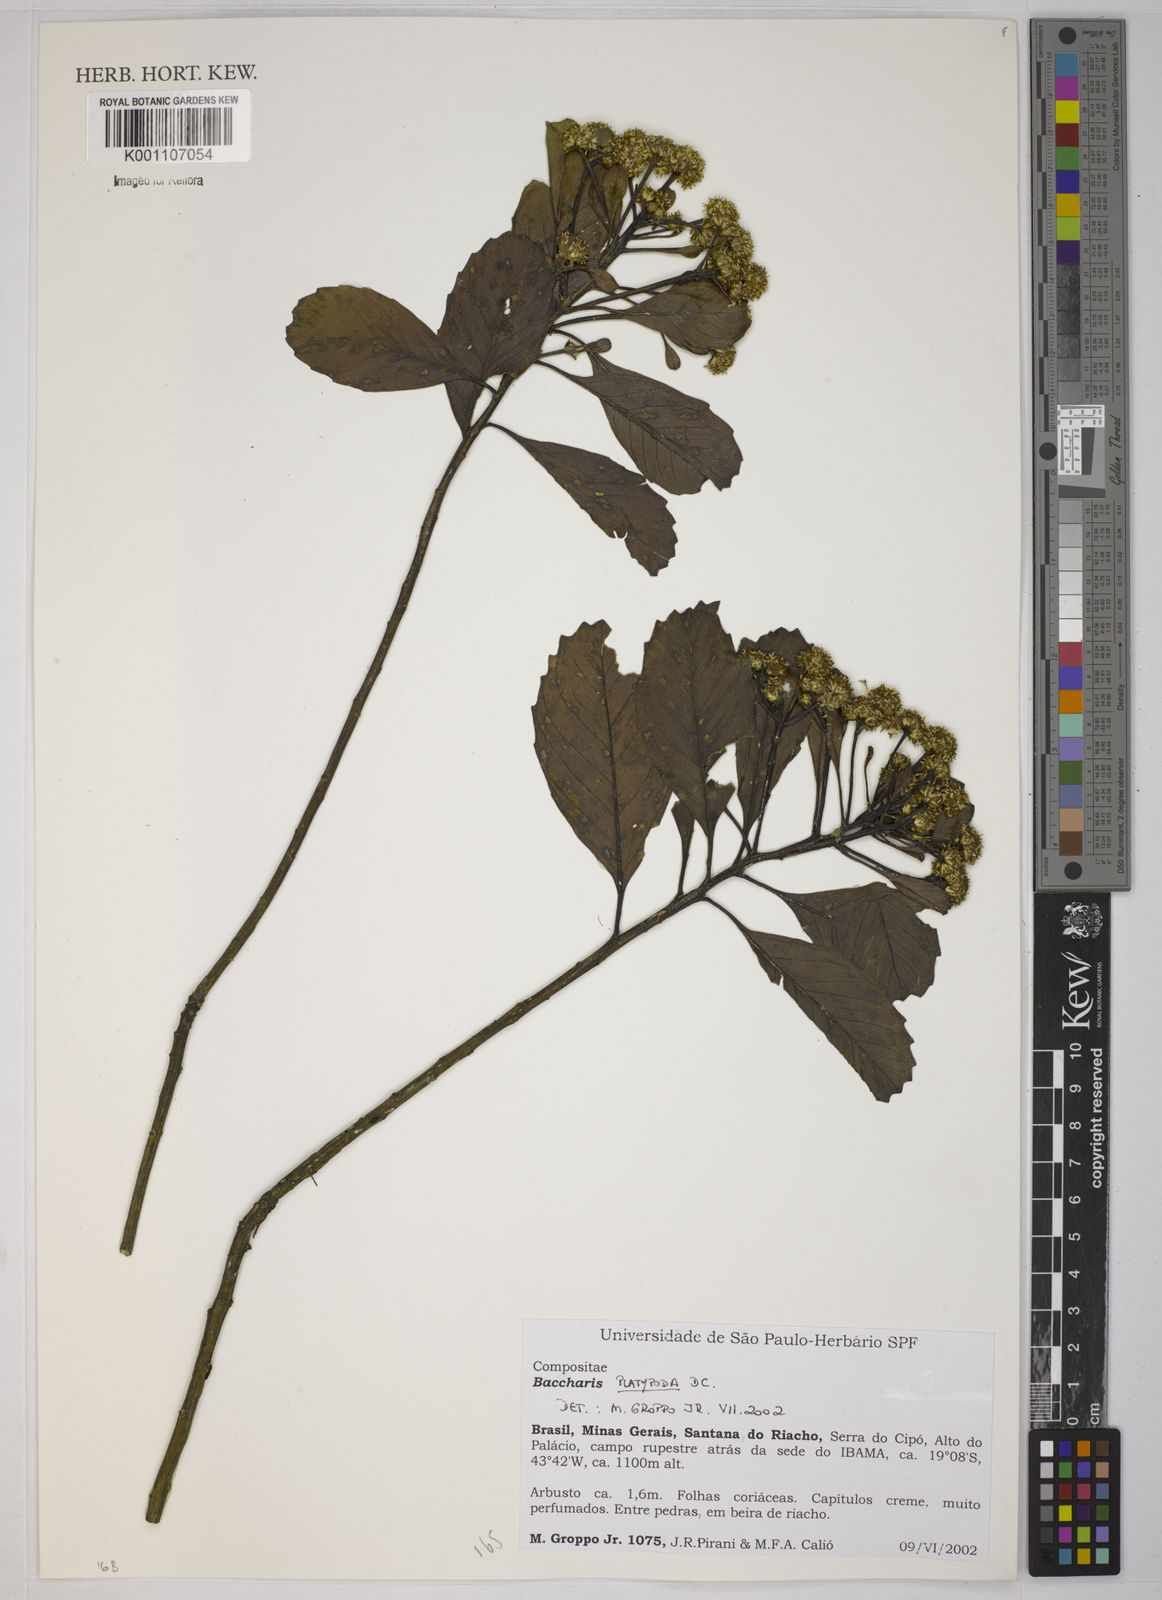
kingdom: Plantae
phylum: Tracheophyta
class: Magnoliopsida
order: Asterales
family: Asteraceae
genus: Baccharis
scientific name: Baccharis platypoda
